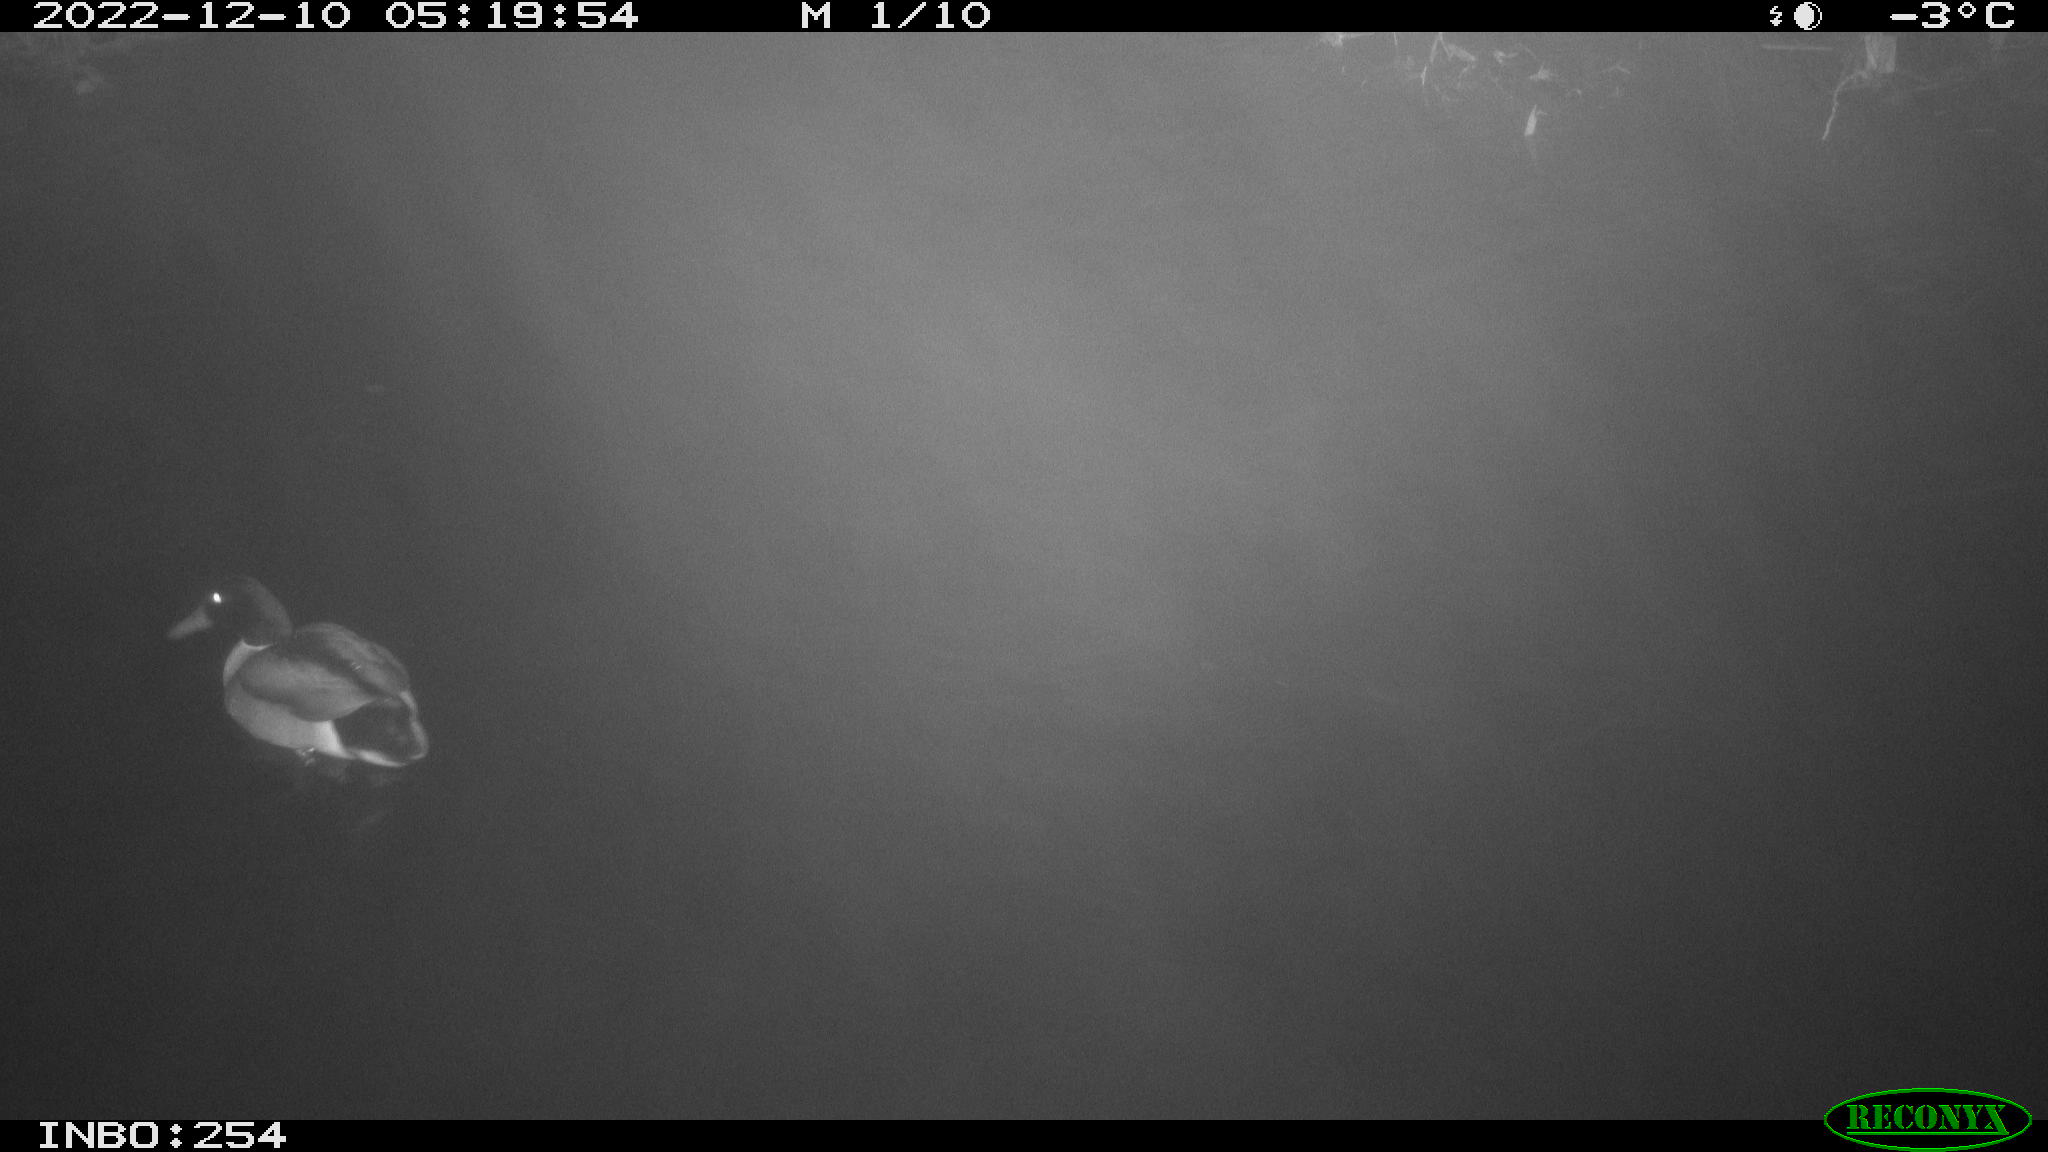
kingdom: Animalia
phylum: Chordata
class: Aves
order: Anseriformes
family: Anatidae
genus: Anas
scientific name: Anas
